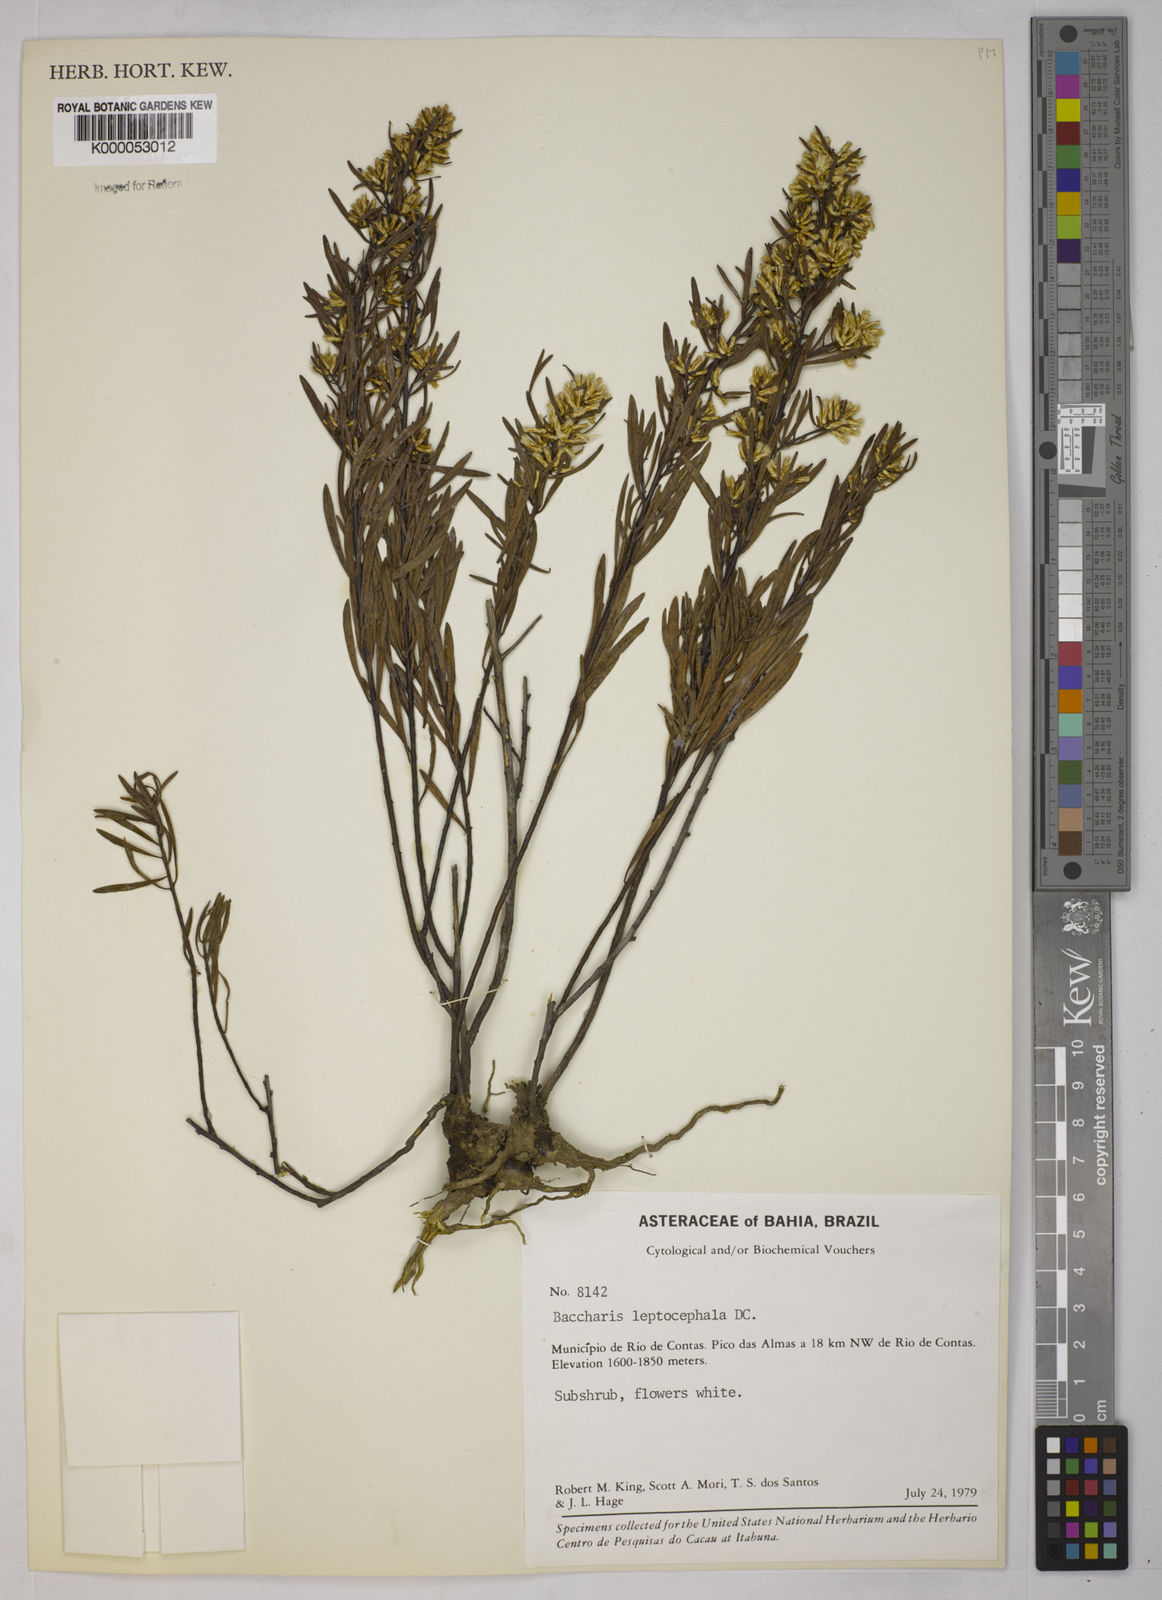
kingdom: Plantae
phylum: Tracheophyta
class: Magnoliopsida
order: Asterales
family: Asteraceae
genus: Baccharis
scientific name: Baccharis leptocephala
